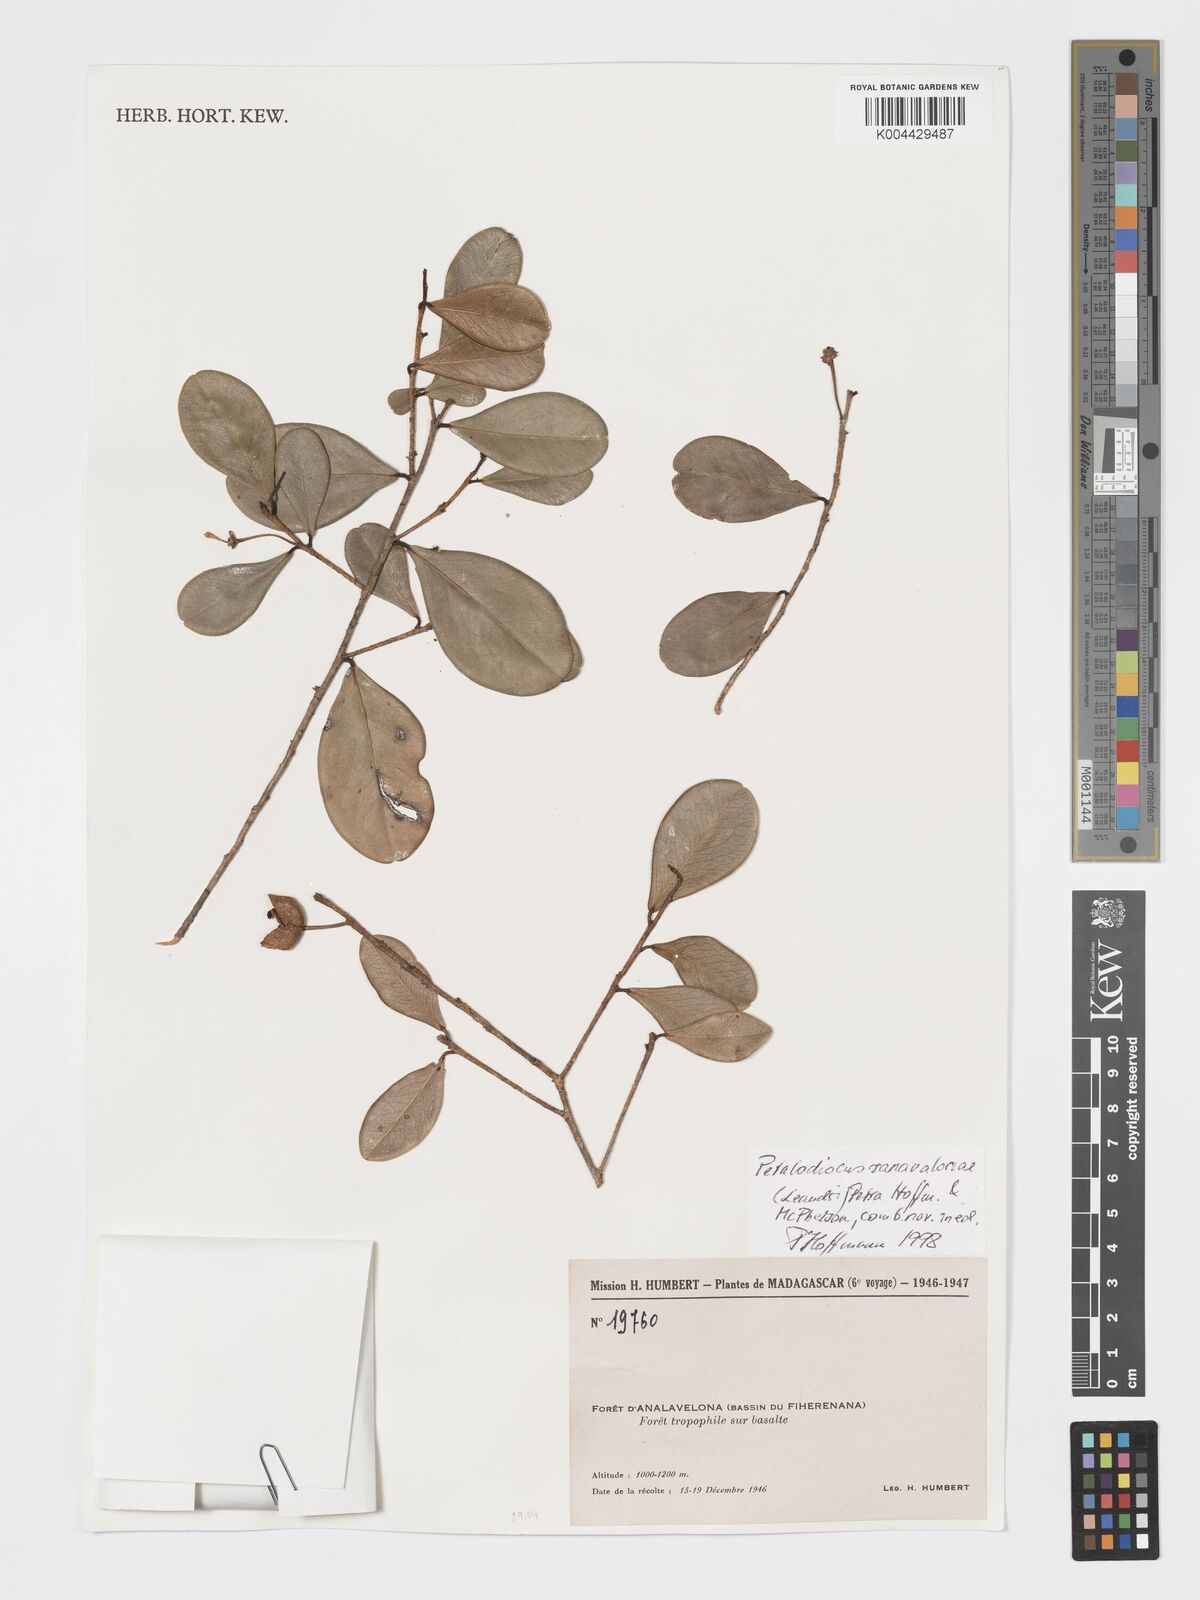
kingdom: Plantae
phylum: Tracheophyta
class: Magnoliopsida
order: Malpighiales
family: Phyllanthaceae
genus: Wielandia
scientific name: Wielandia ranavalonae
